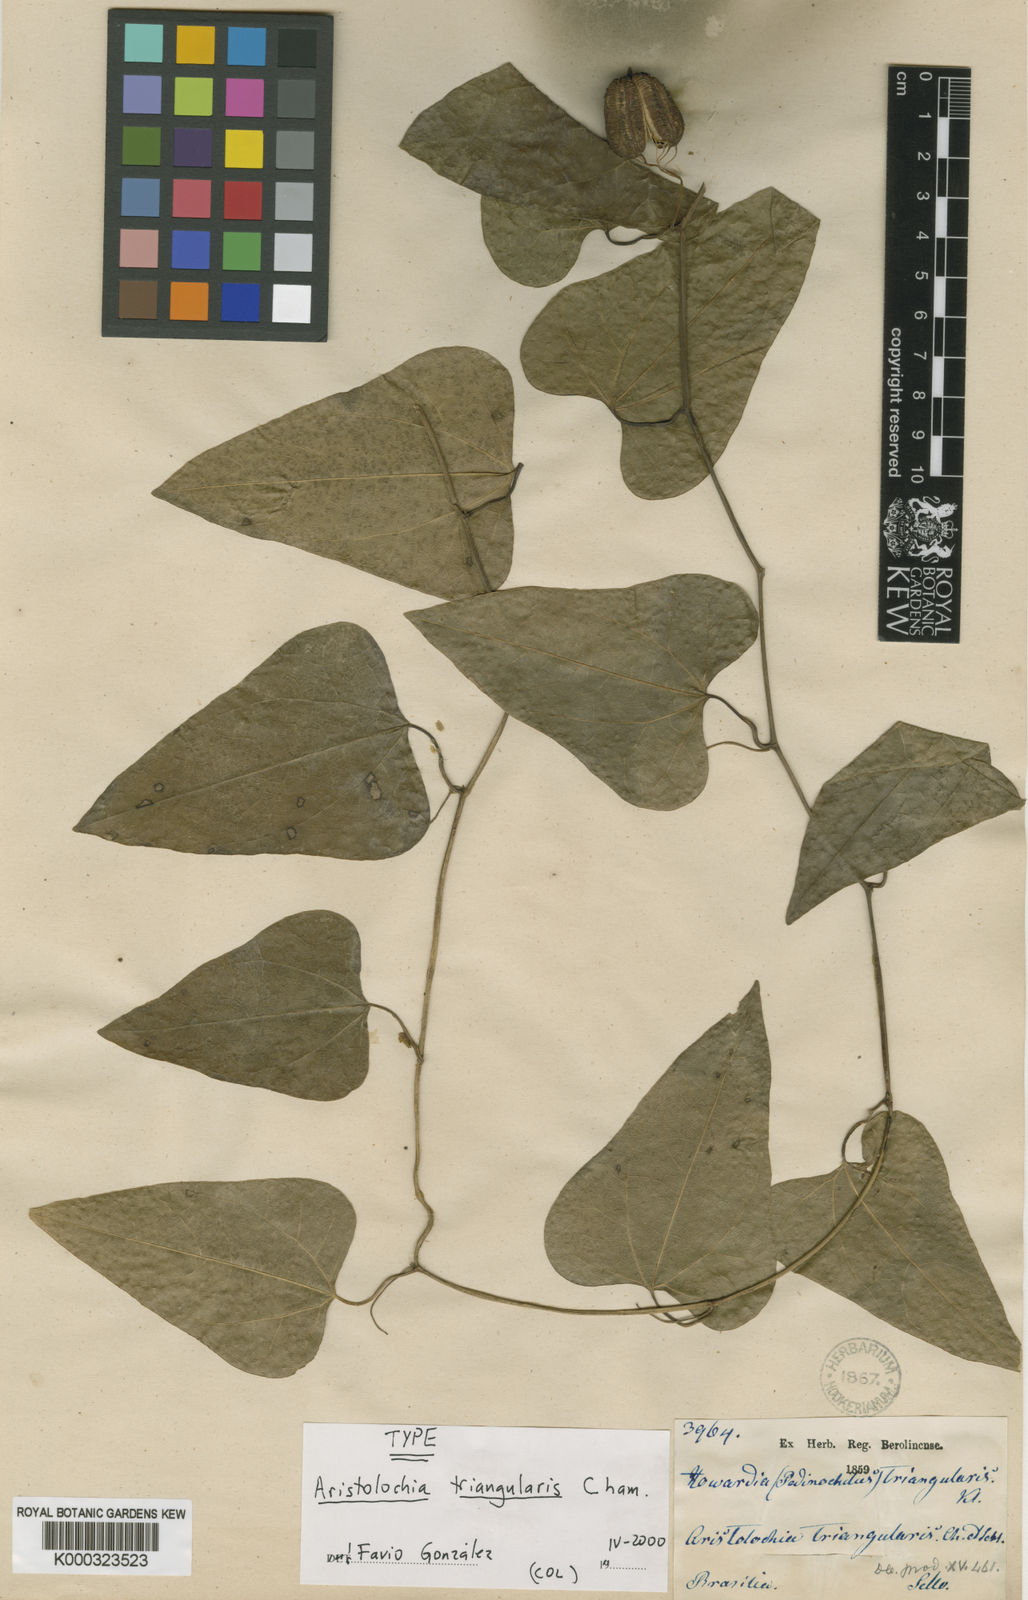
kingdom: Plantae
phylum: Tracheophyta
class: Magnoliopsida
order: Piperales
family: Aristolochiaceae
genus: Aristolochia
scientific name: Aristolochia triangularis
